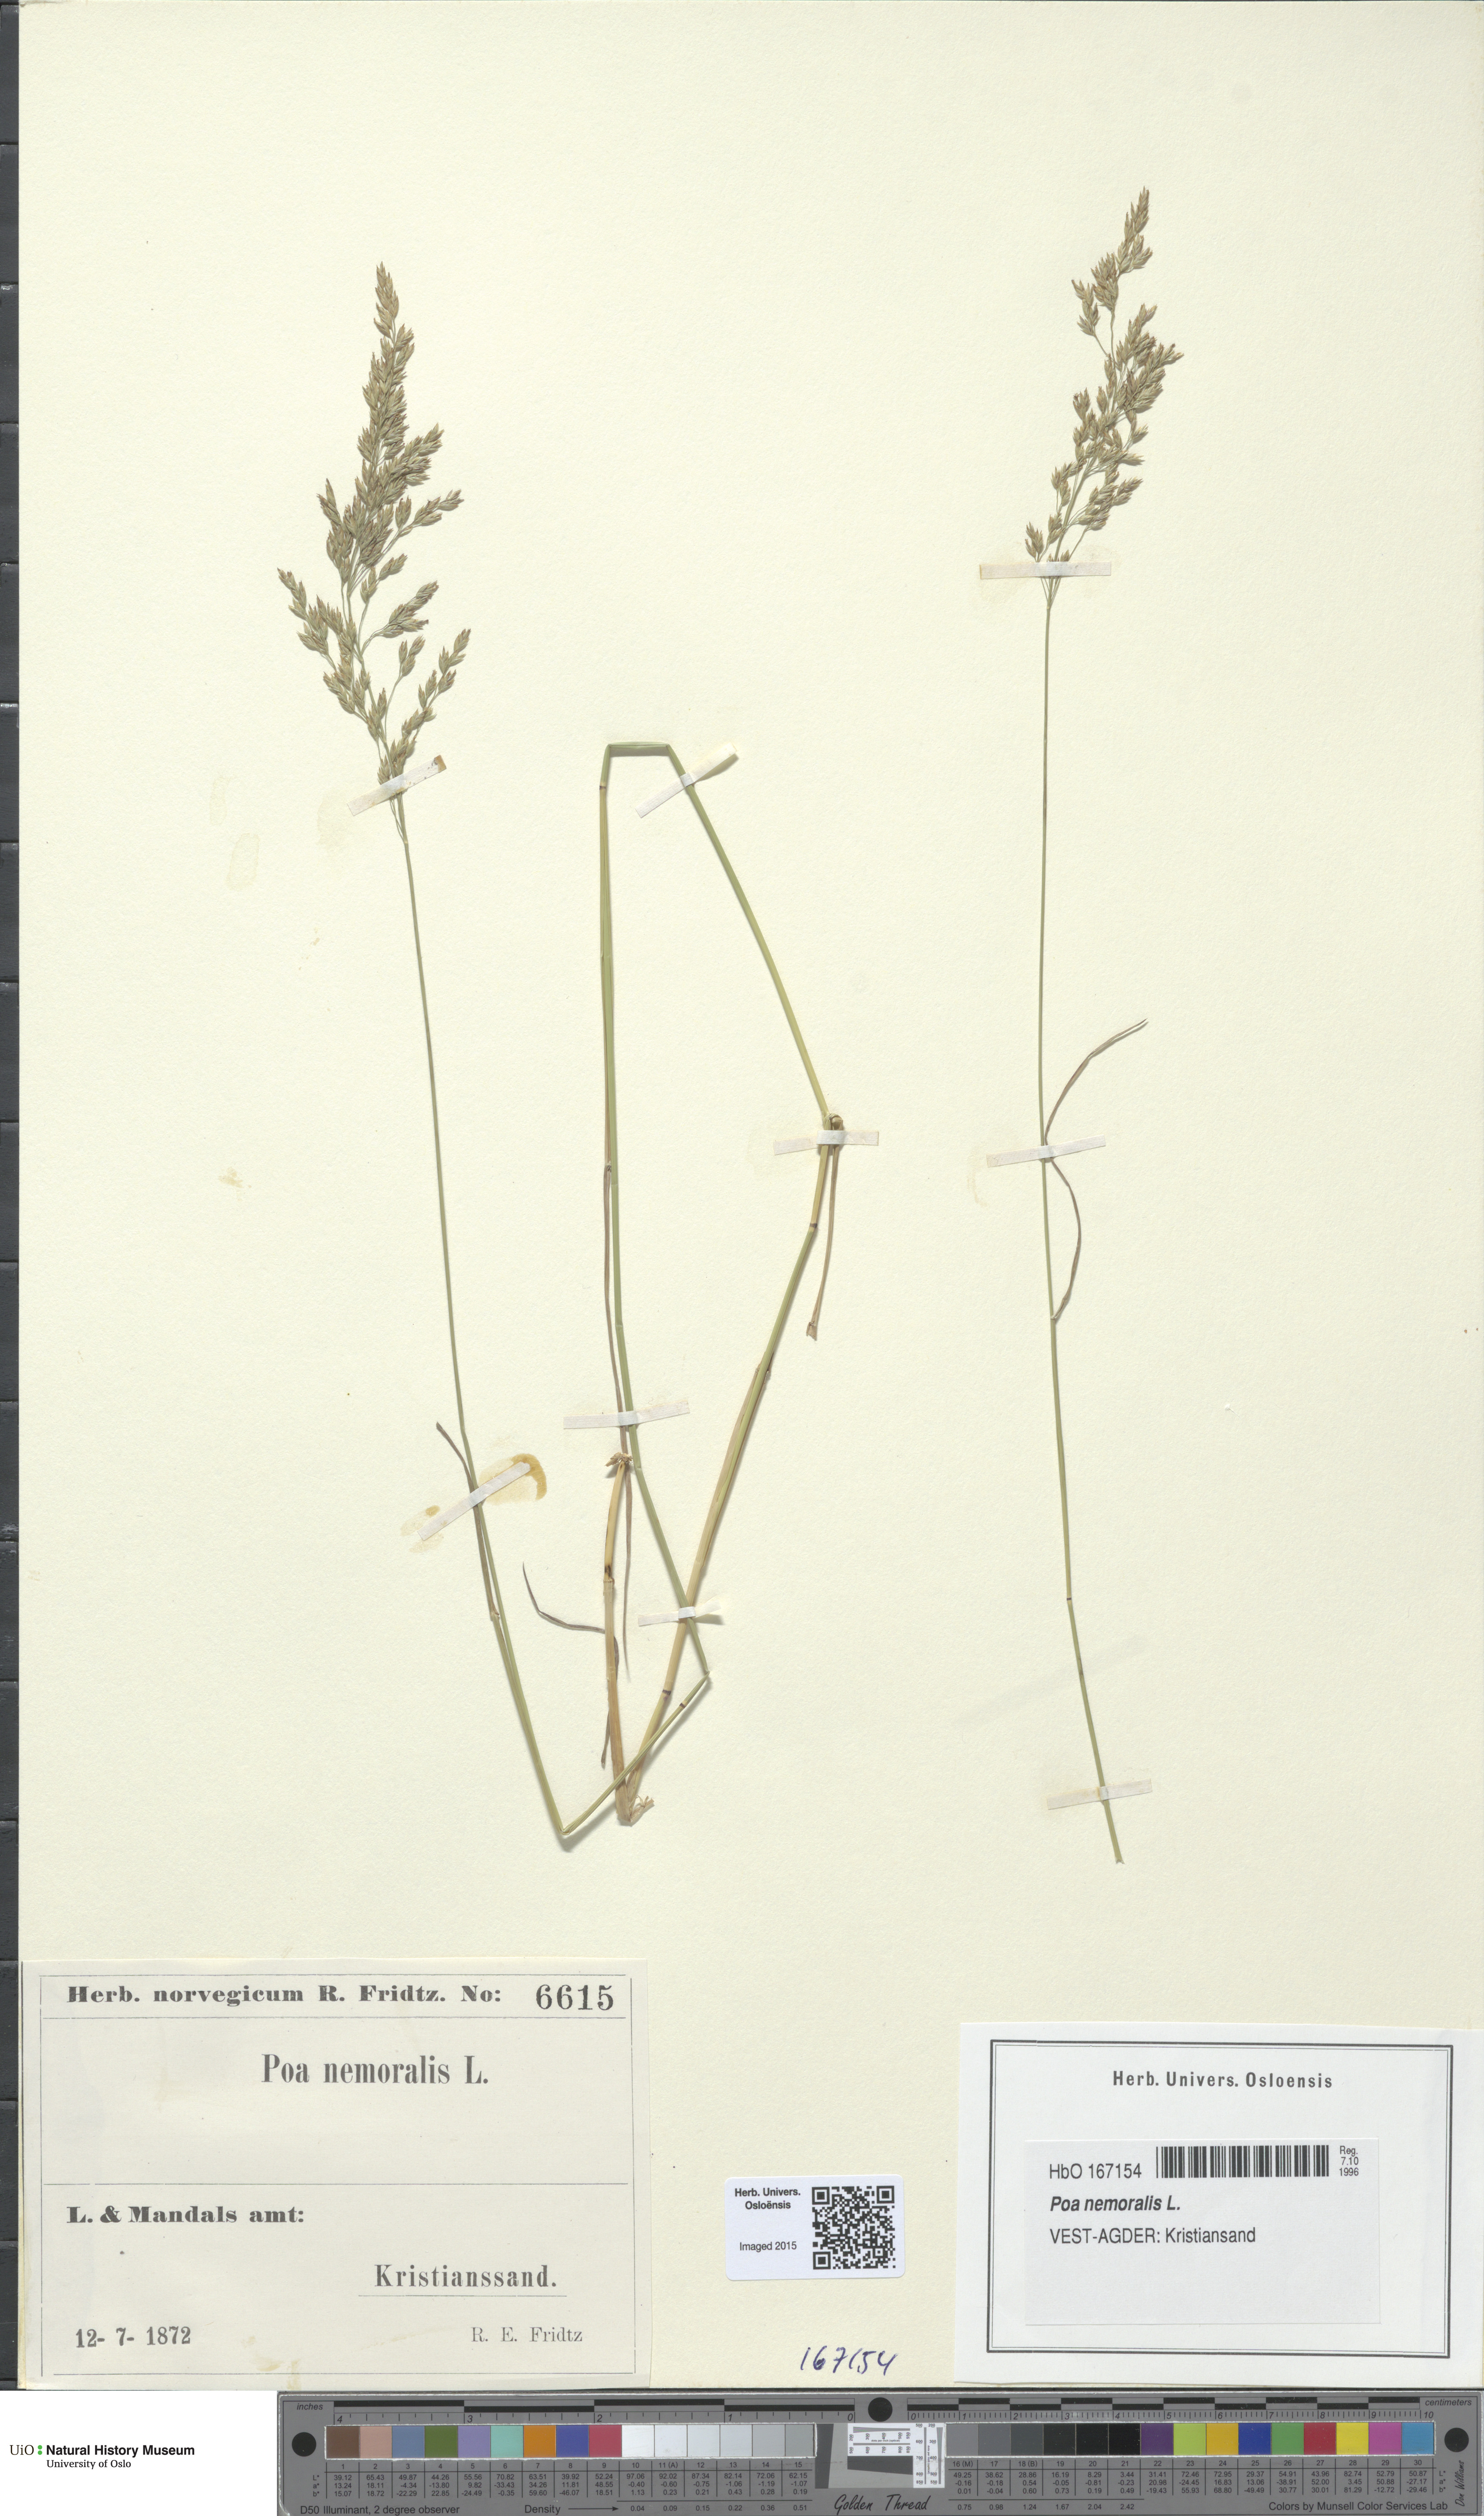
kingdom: Plantae
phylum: Tracheophyta
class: Liliopsida
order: Poales
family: Poaceae
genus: Poa
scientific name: Poa nemoralis
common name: Wood bluegrass
